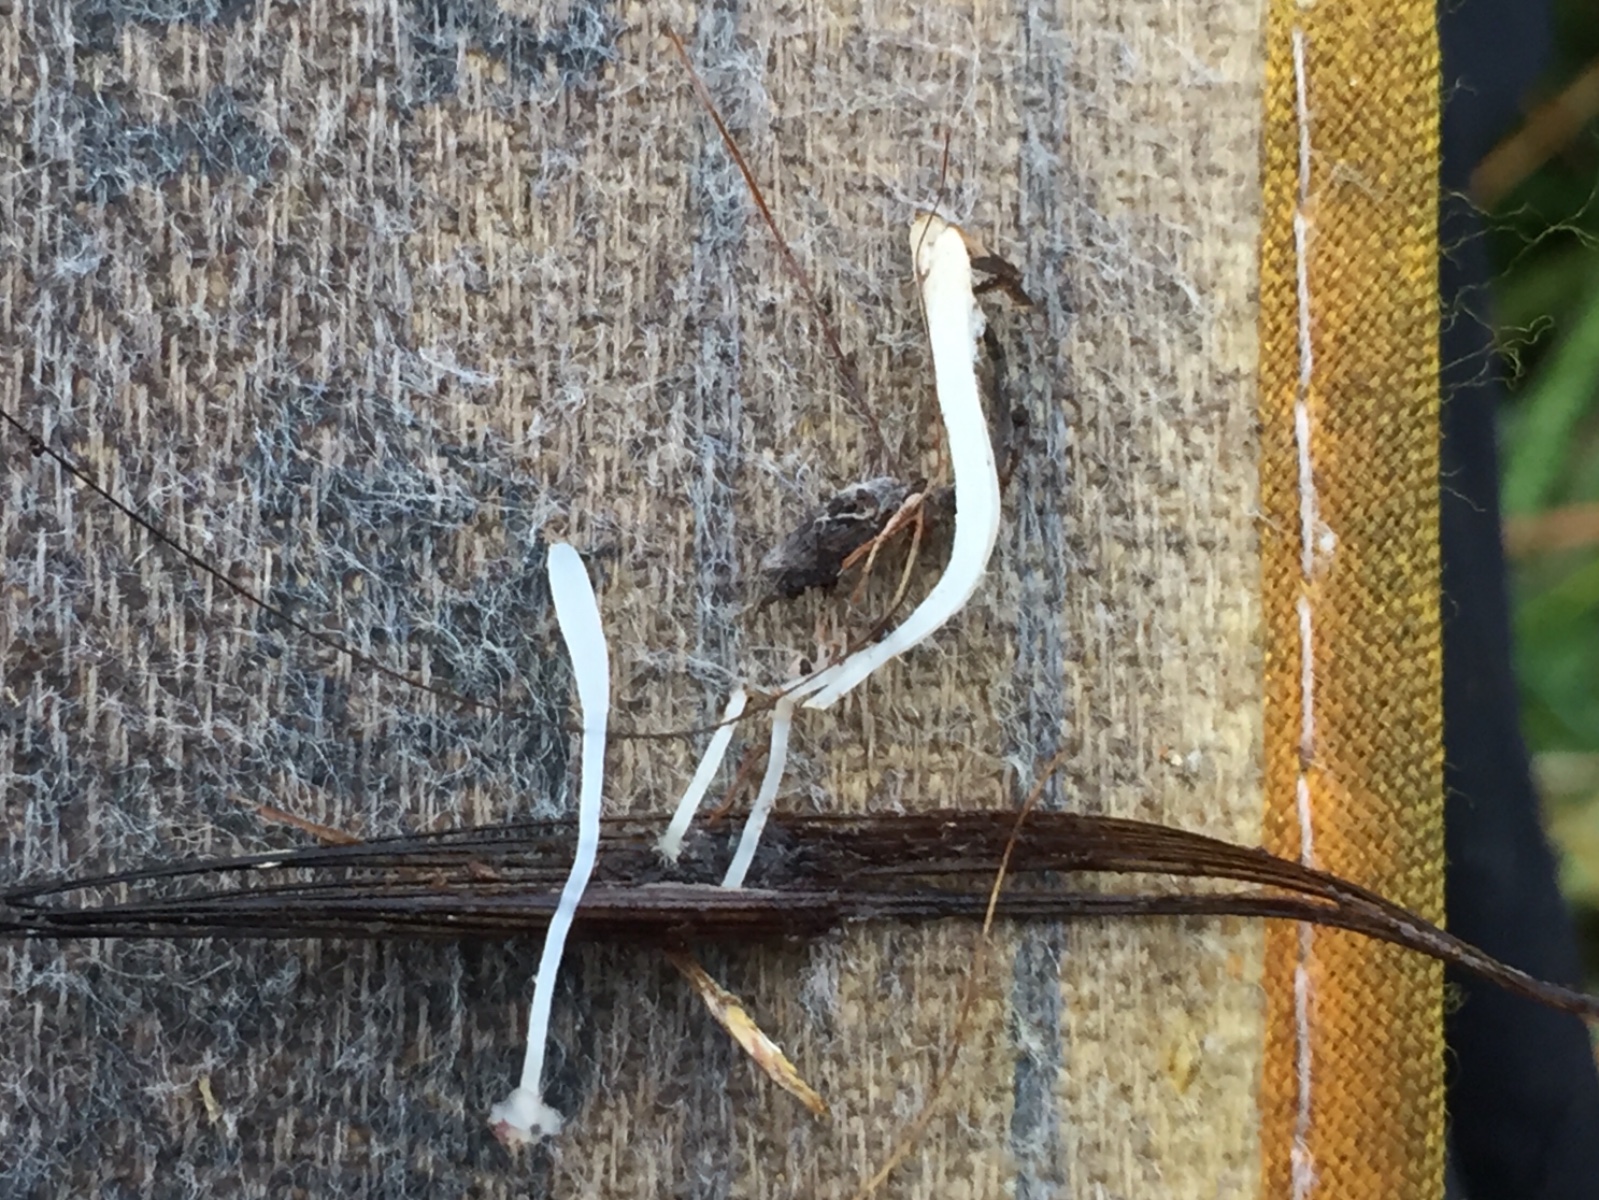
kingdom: Fungi
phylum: Basidiomycota
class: Agaricomycetes
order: Agaricales
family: Typhulaceae
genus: Typhula
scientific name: Typhula
